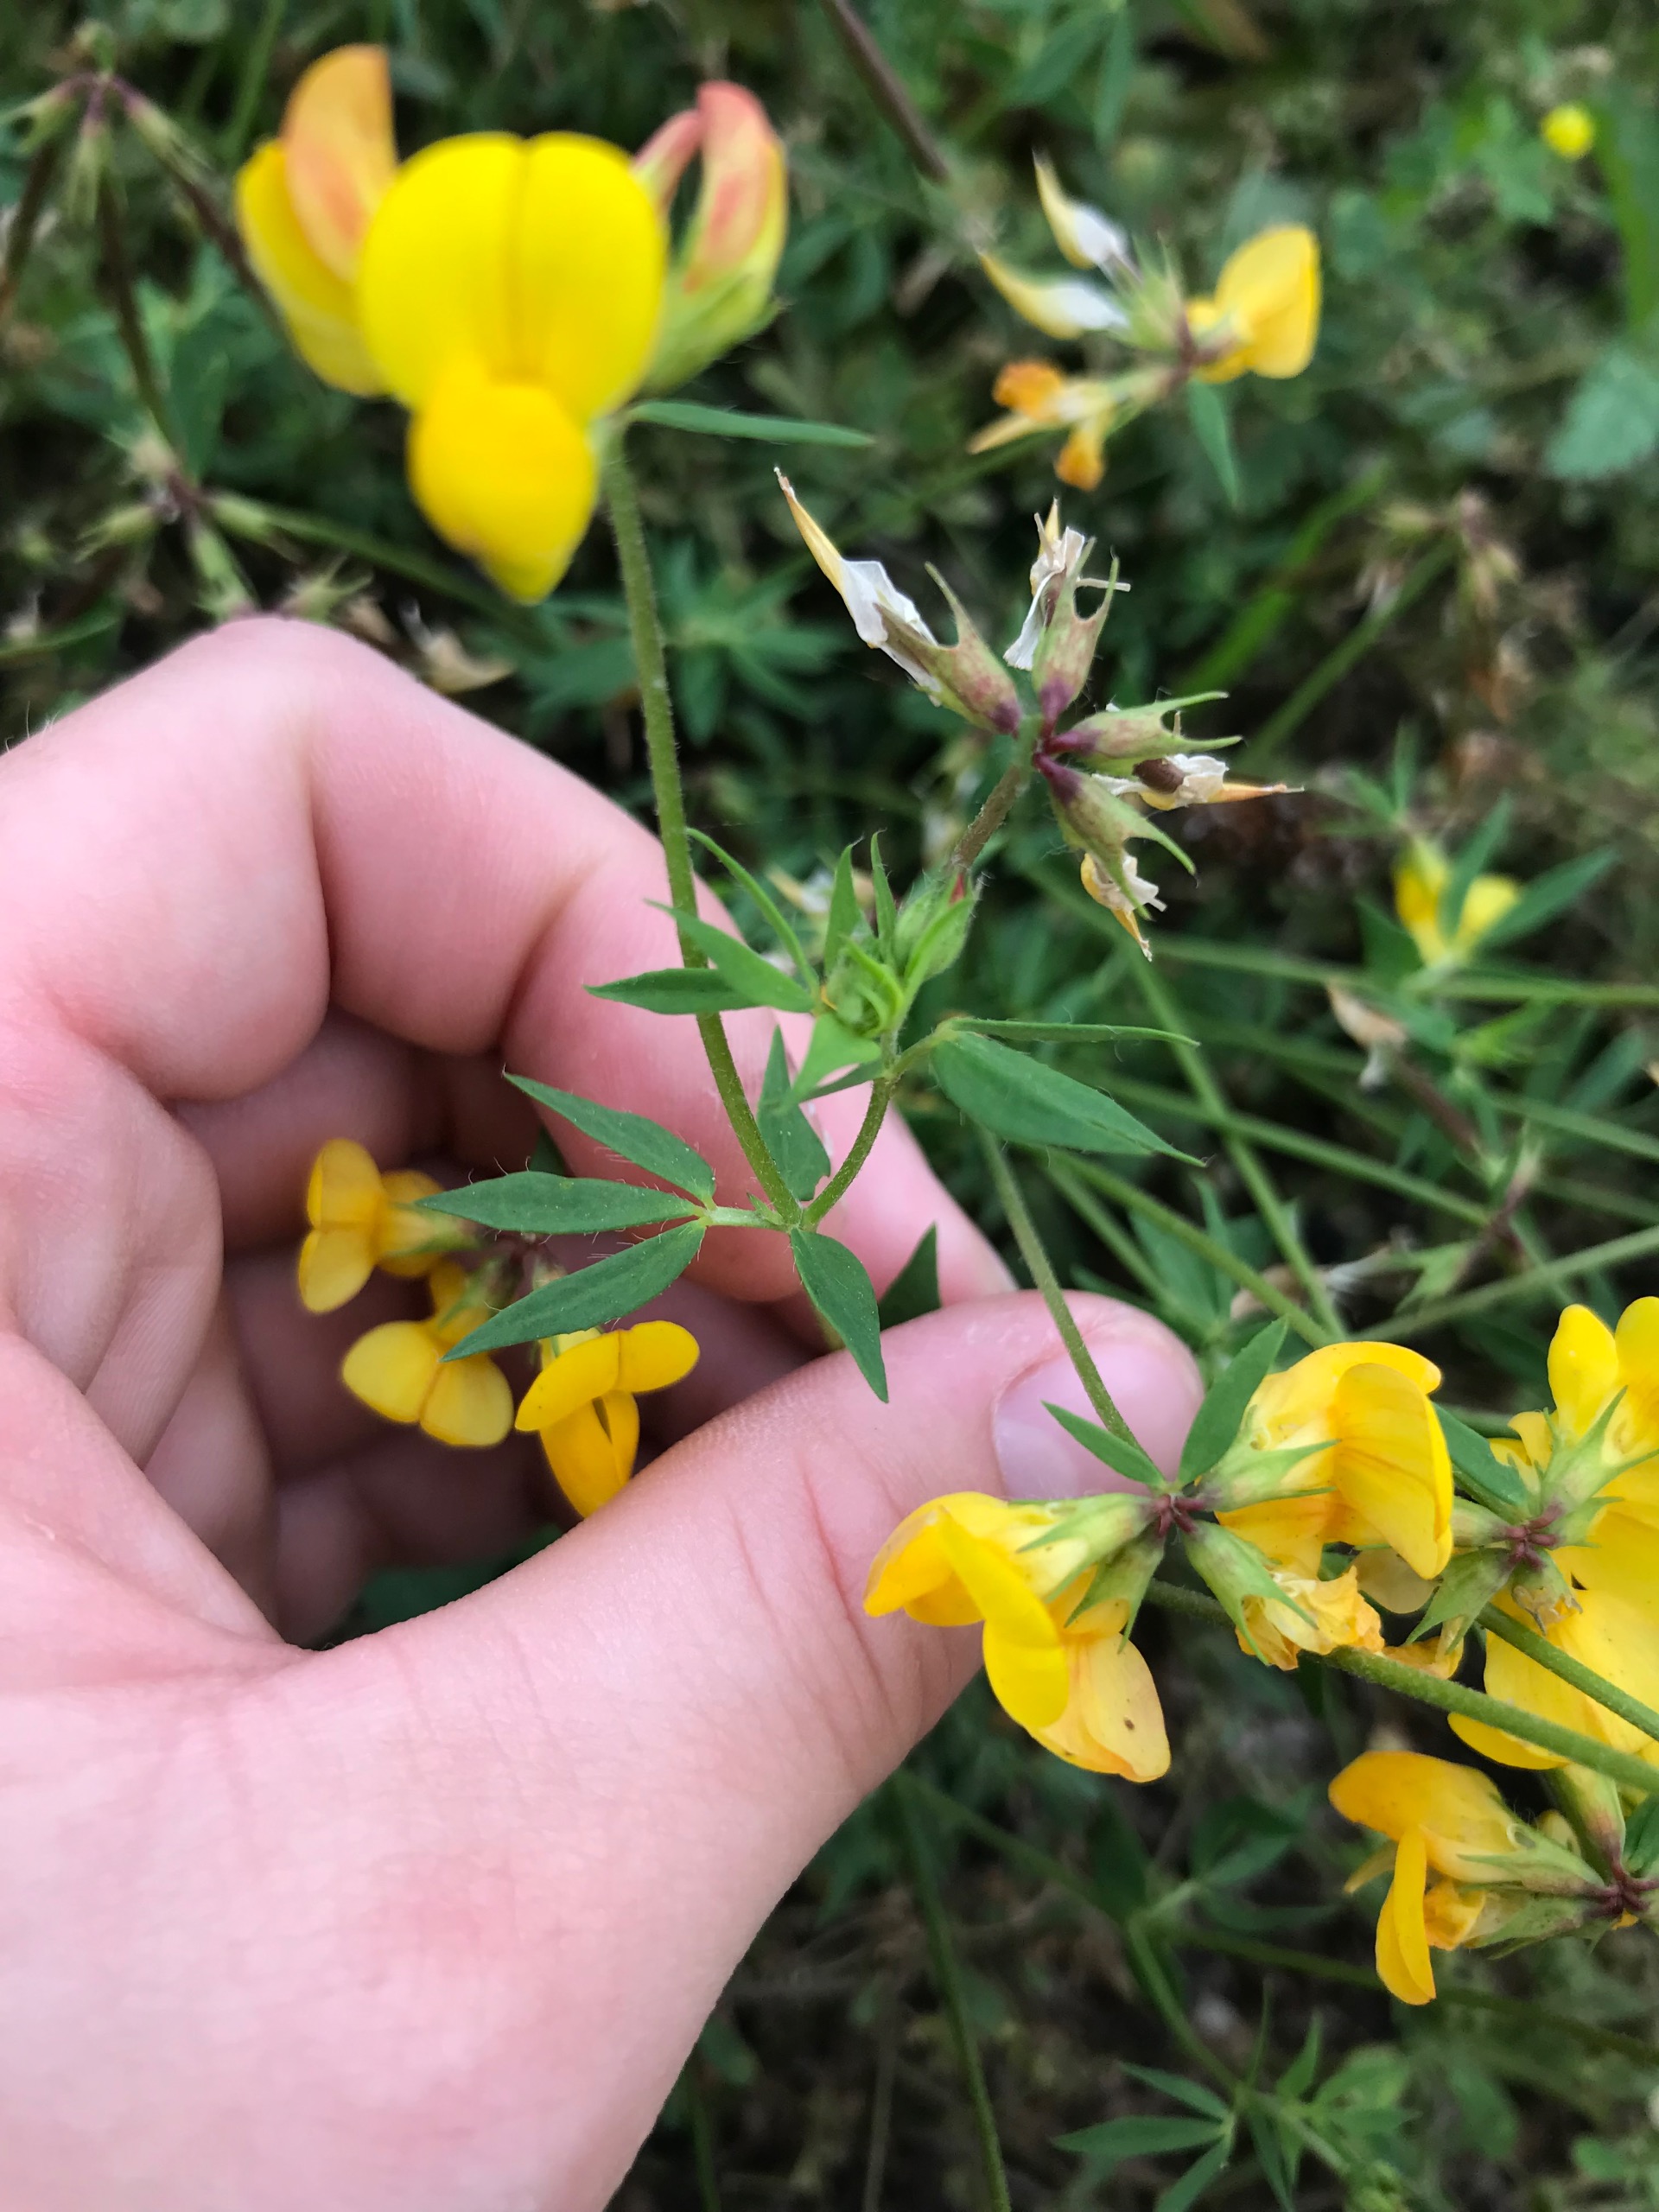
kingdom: Plantae
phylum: Tracheophyta
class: Magnoliopsida
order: Fabales
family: Fabaceae
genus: Lotus
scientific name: Lotus corniculatus
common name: Almindelig kællingetand
